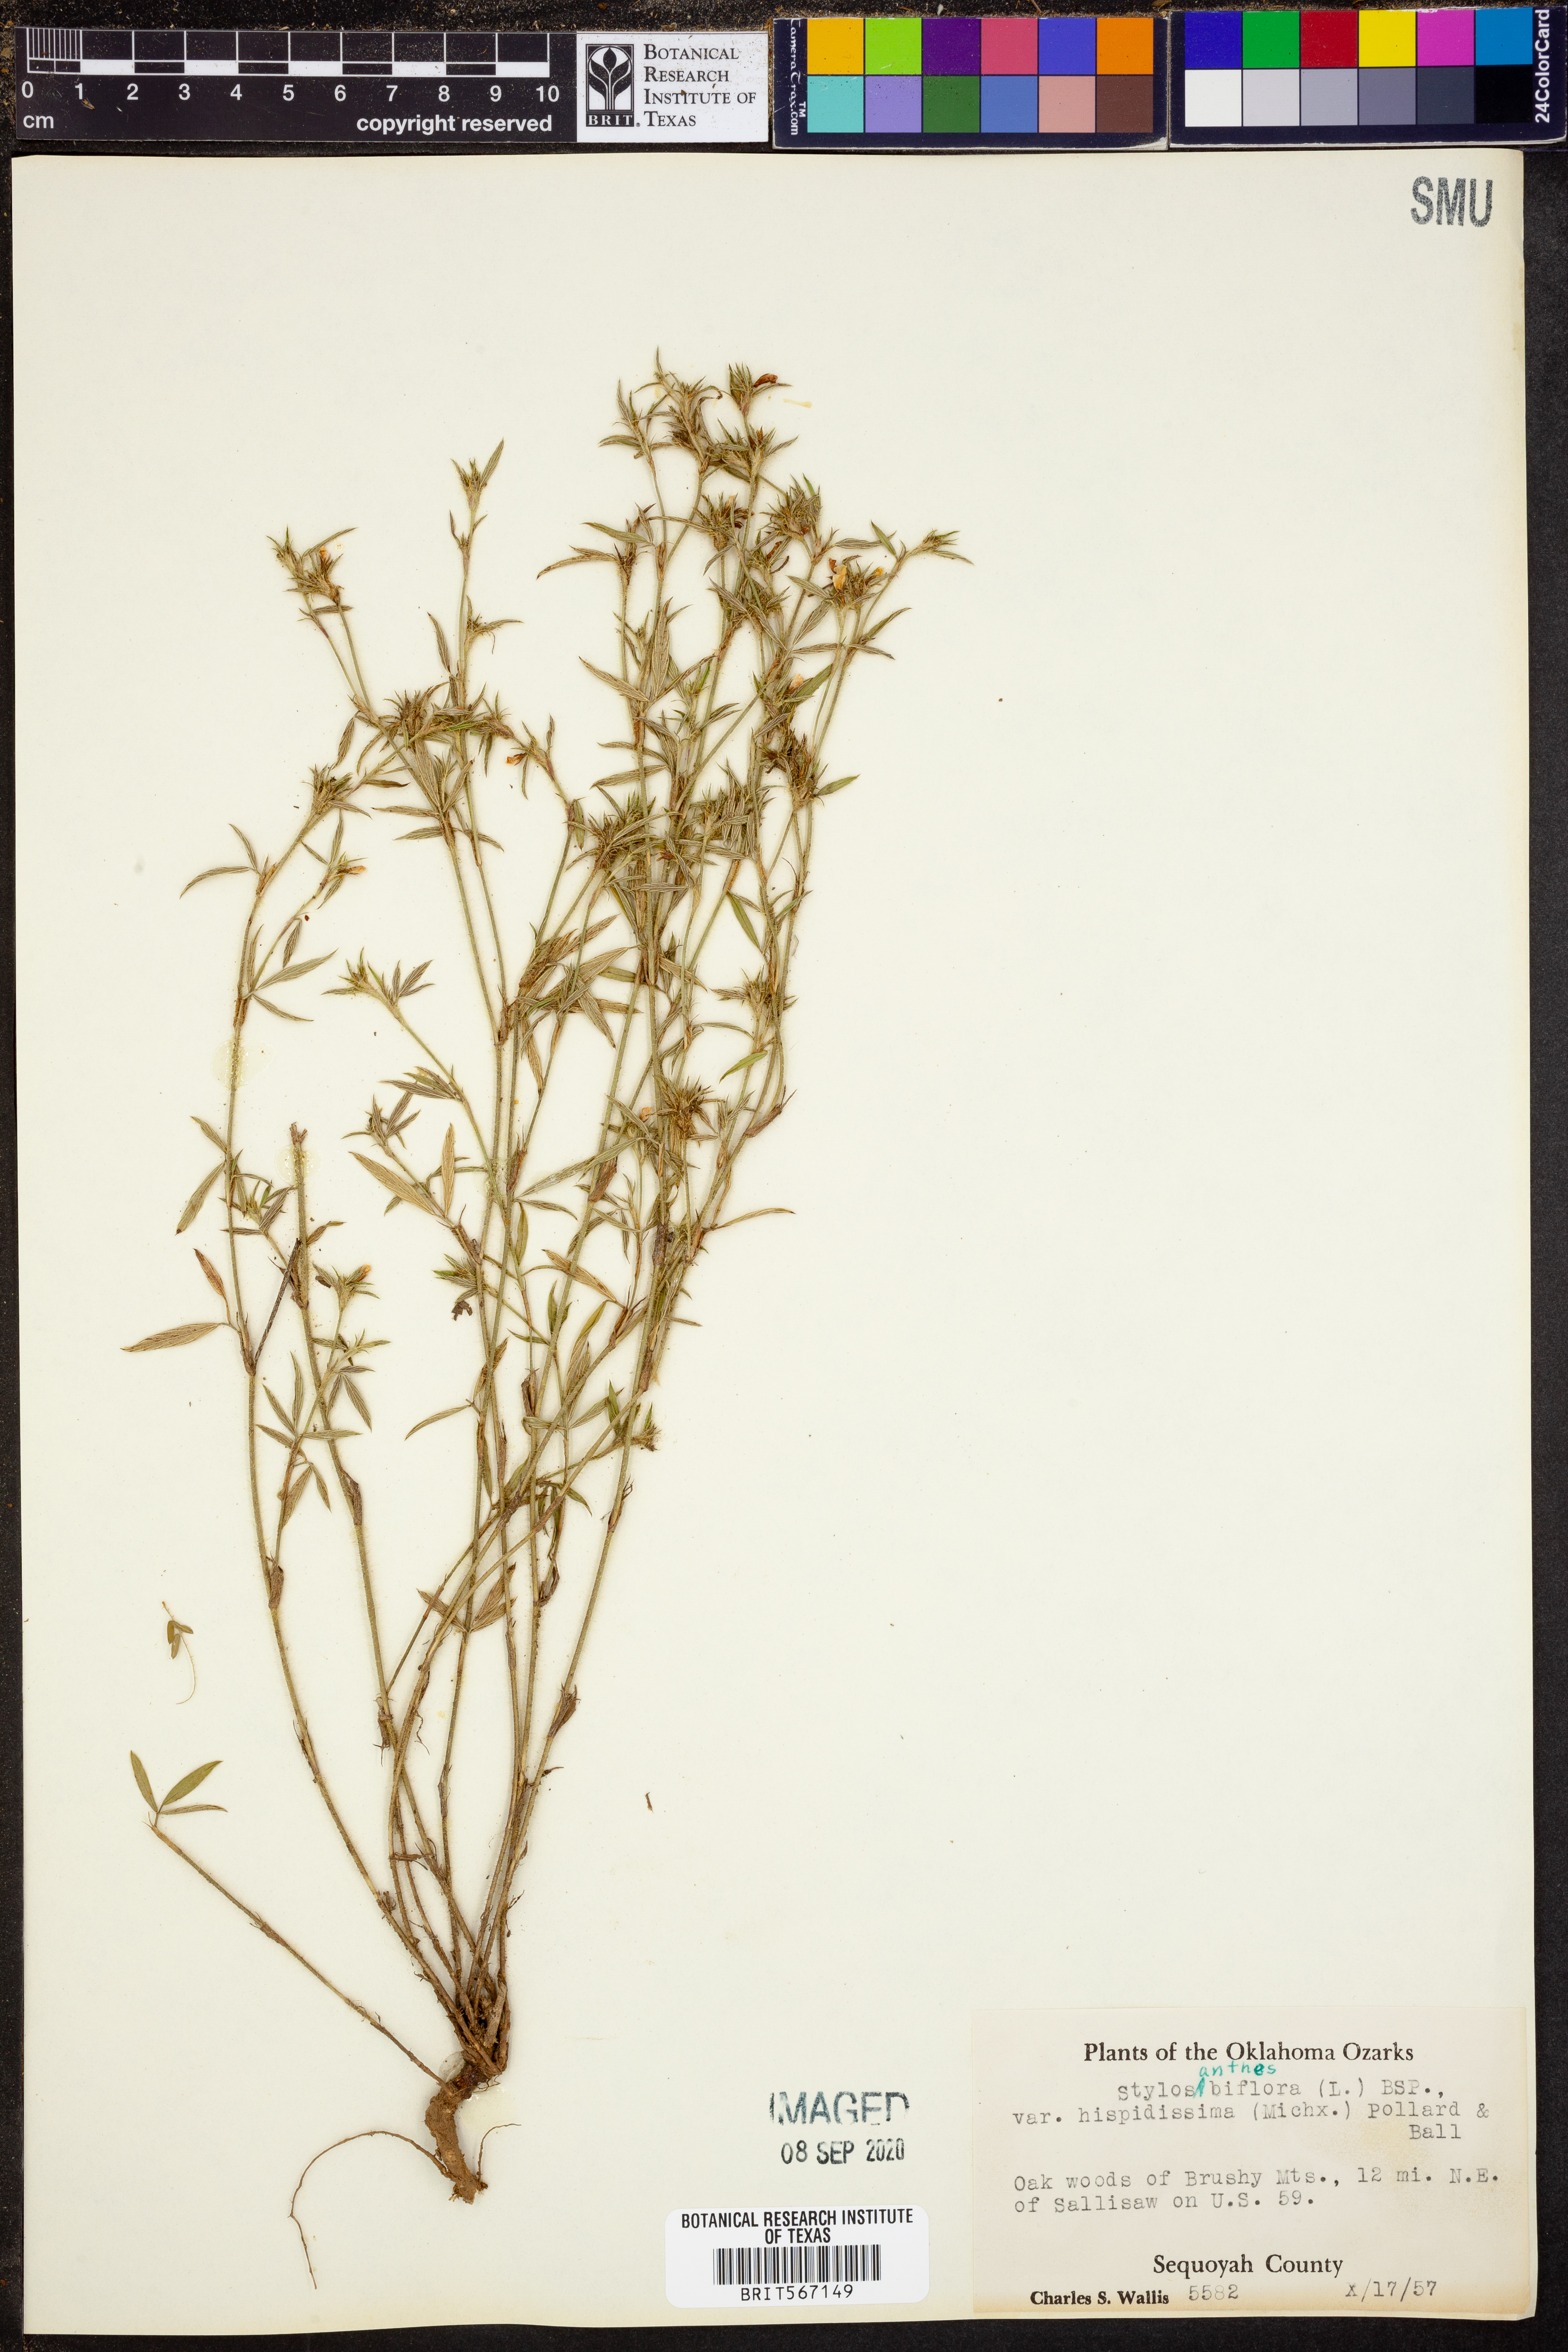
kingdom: Plantae
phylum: Tracheophyta
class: Magnoliopsida
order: Fabales
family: Fabaceae
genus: Stylosanthes
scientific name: Stylosanthes biflora
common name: Two-flower pencil-flower
